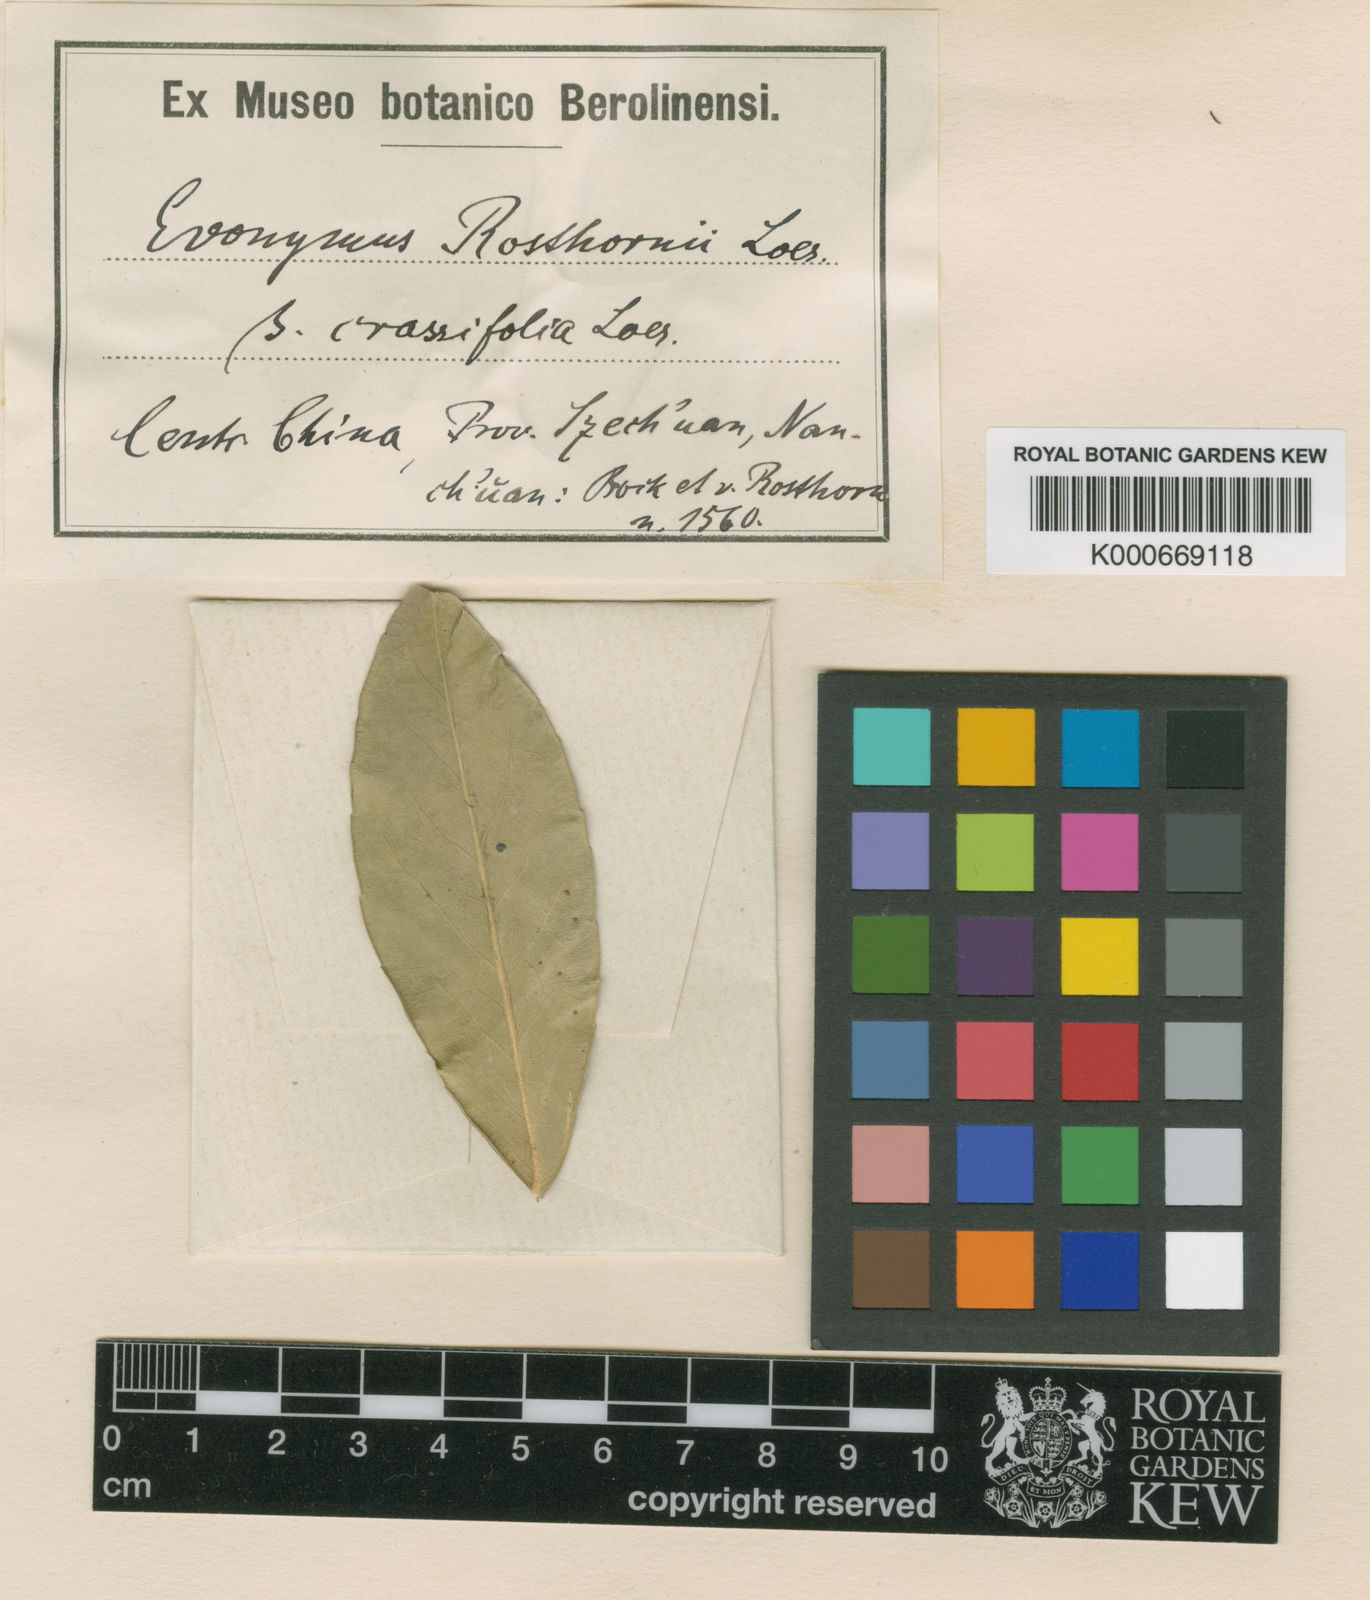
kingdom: Plantae
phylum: Tracheophyta
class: Magnoliopsida
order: Celastrales
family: Celastraceae
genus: Euonymus
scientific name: Euonymus myrianthus
